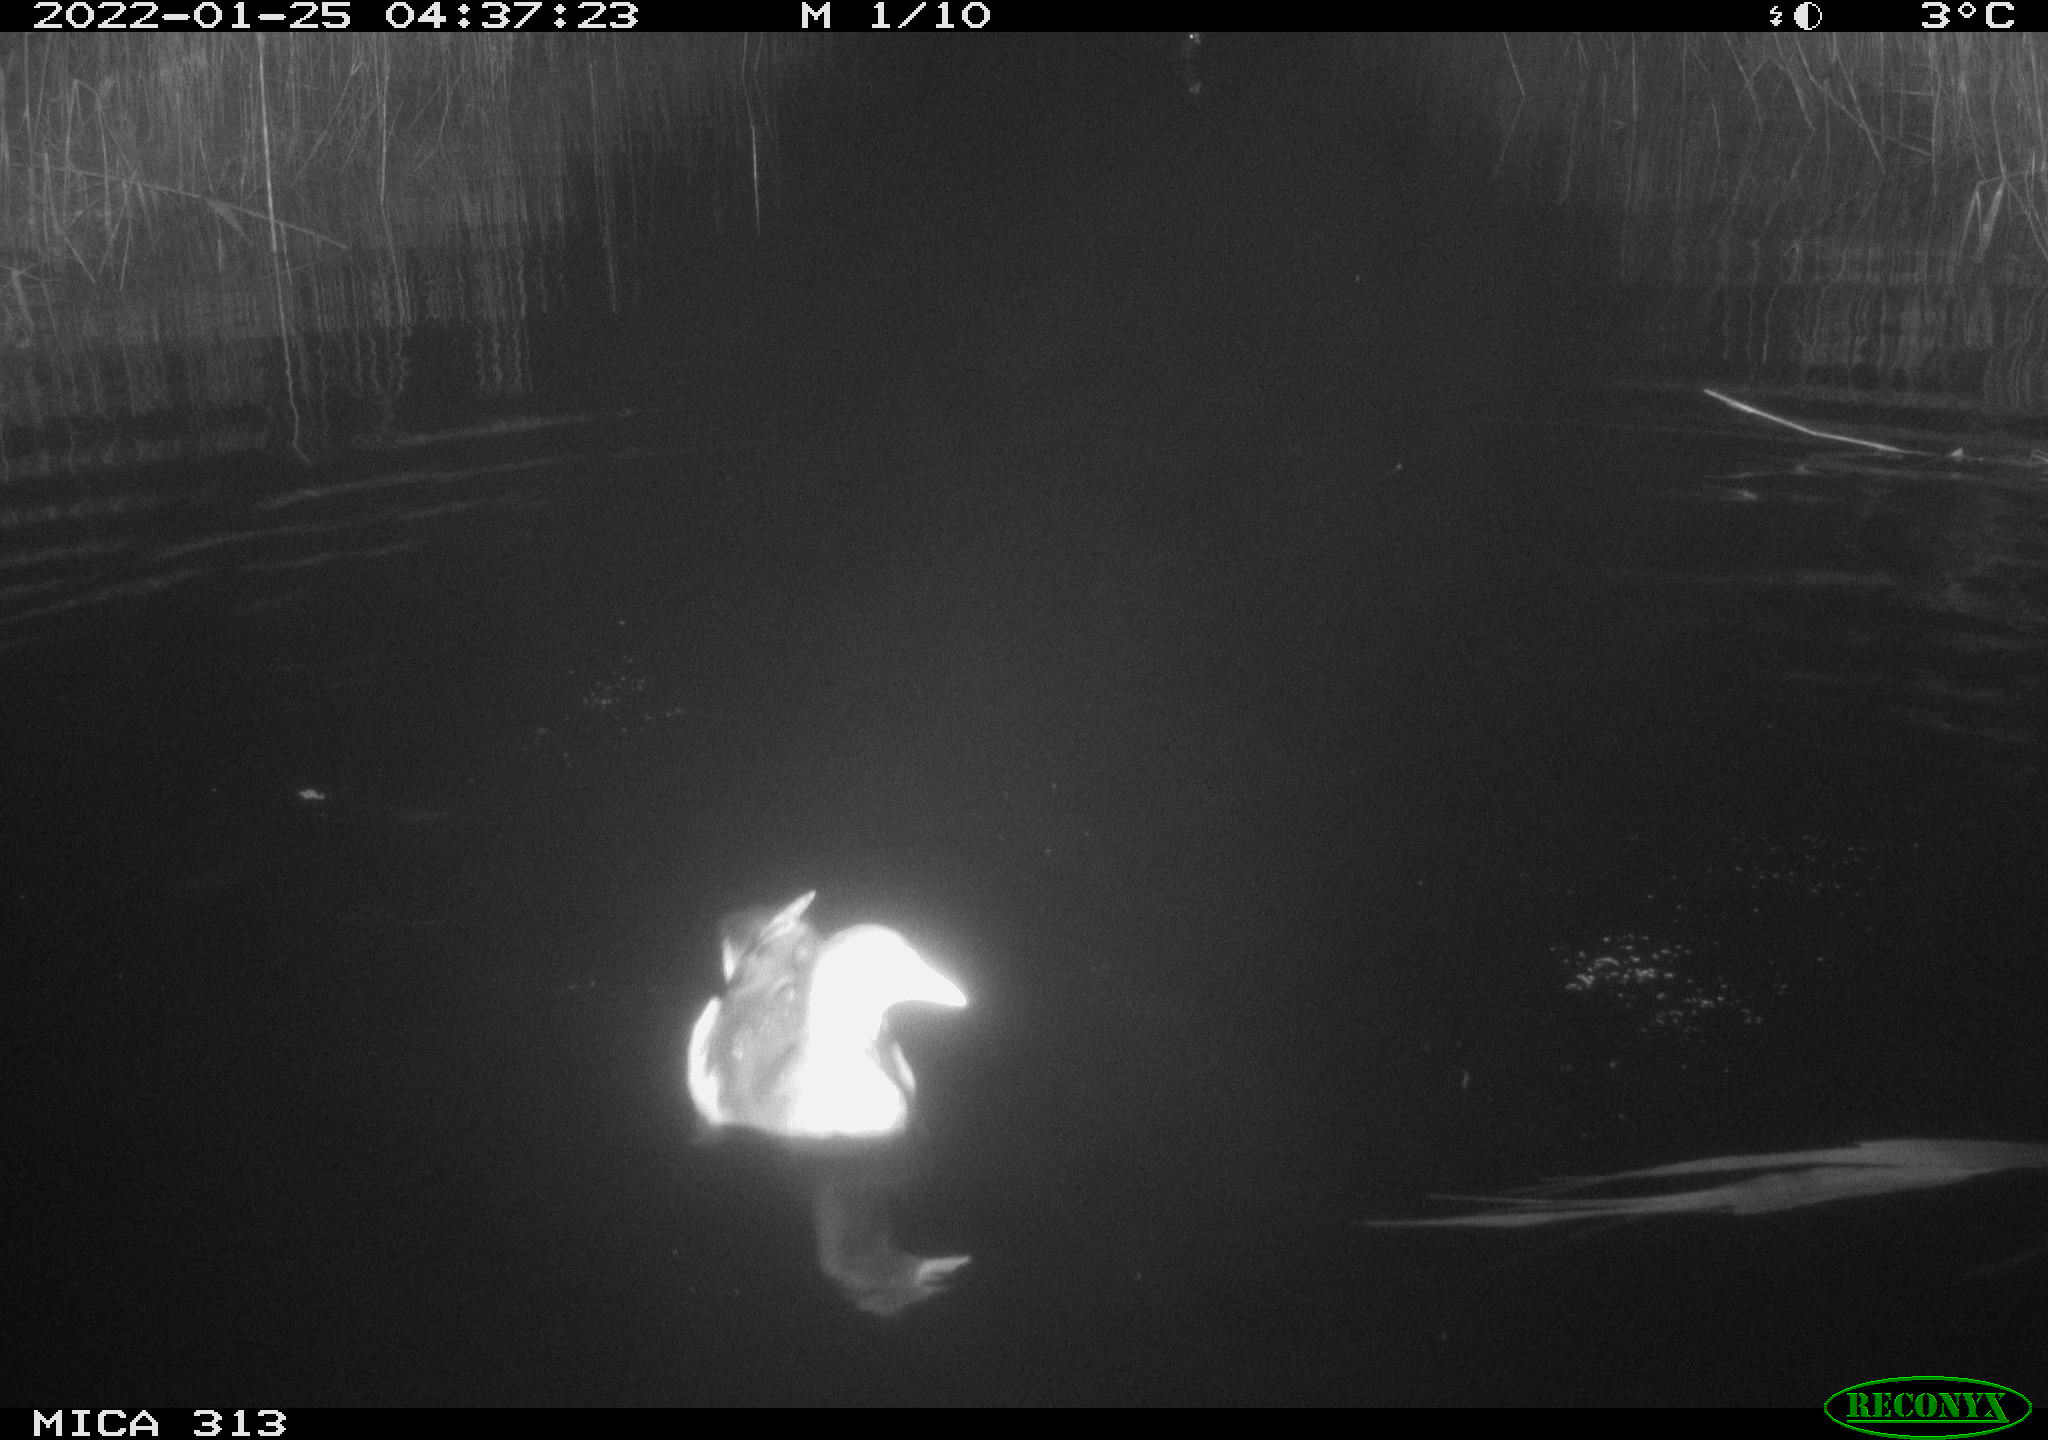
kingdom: Animalia
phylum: Chordata
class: Aves
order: Gruiformes
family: Rallidae
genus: Gallinula
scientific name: Gallinula chloropus
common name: Common moorhen
